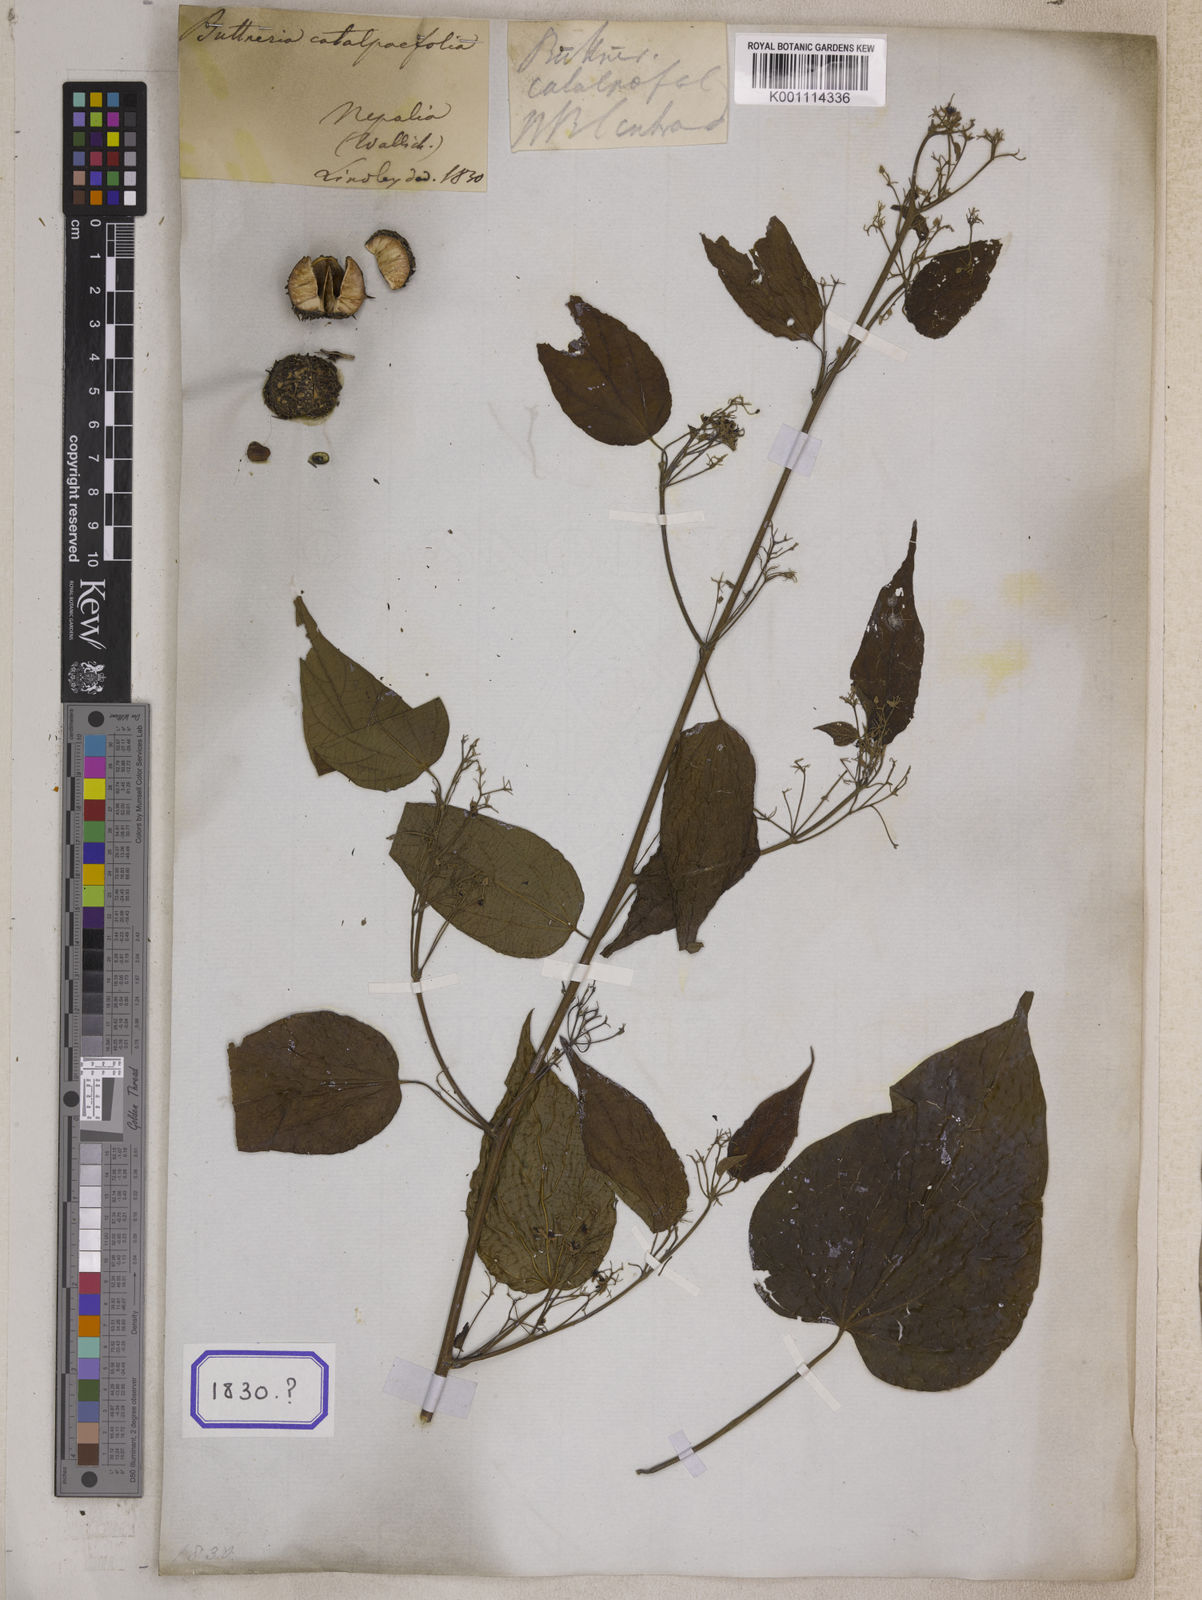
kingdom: Plantae
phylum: Tracheophyta
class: Magnoliopsida
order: Lamiales
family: Lamiaceae
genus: Callicarpa
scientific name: Callicarpa nudiflora
